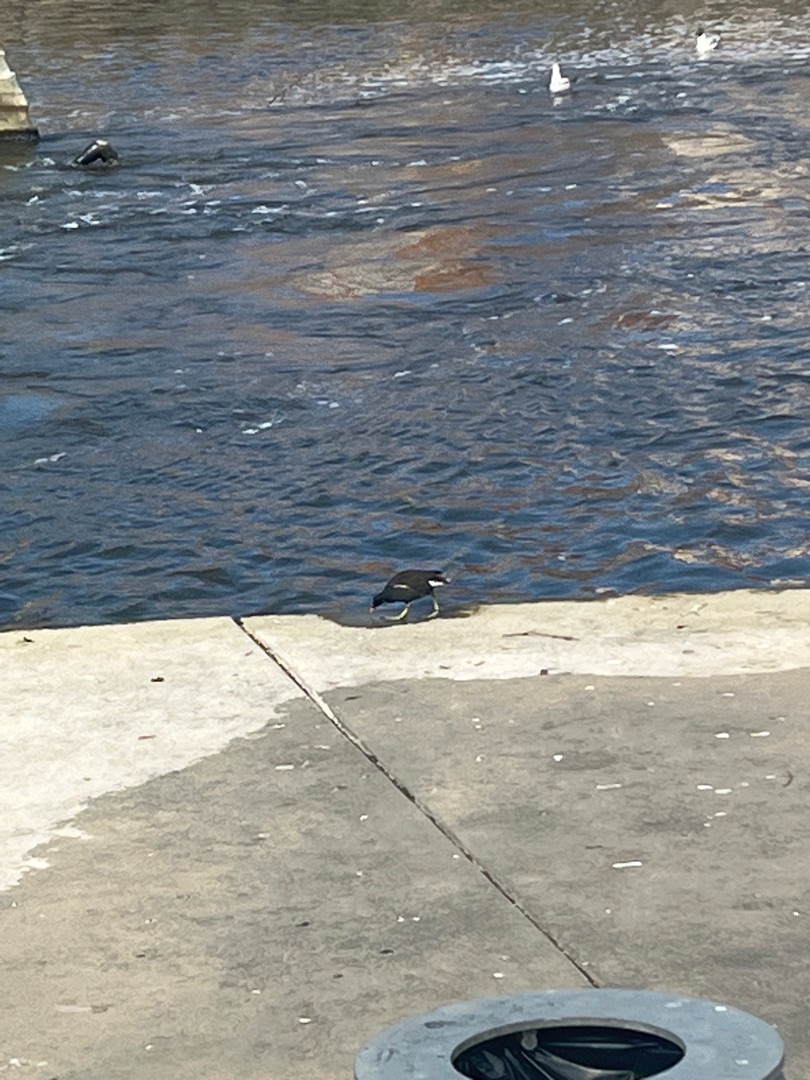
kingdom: Animalia
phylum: Chordata
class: Aves
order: Gruiformes
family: Rallidae
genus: Gallinula
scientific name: Gallinula chloropus
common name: Grønbenet rørhøne
